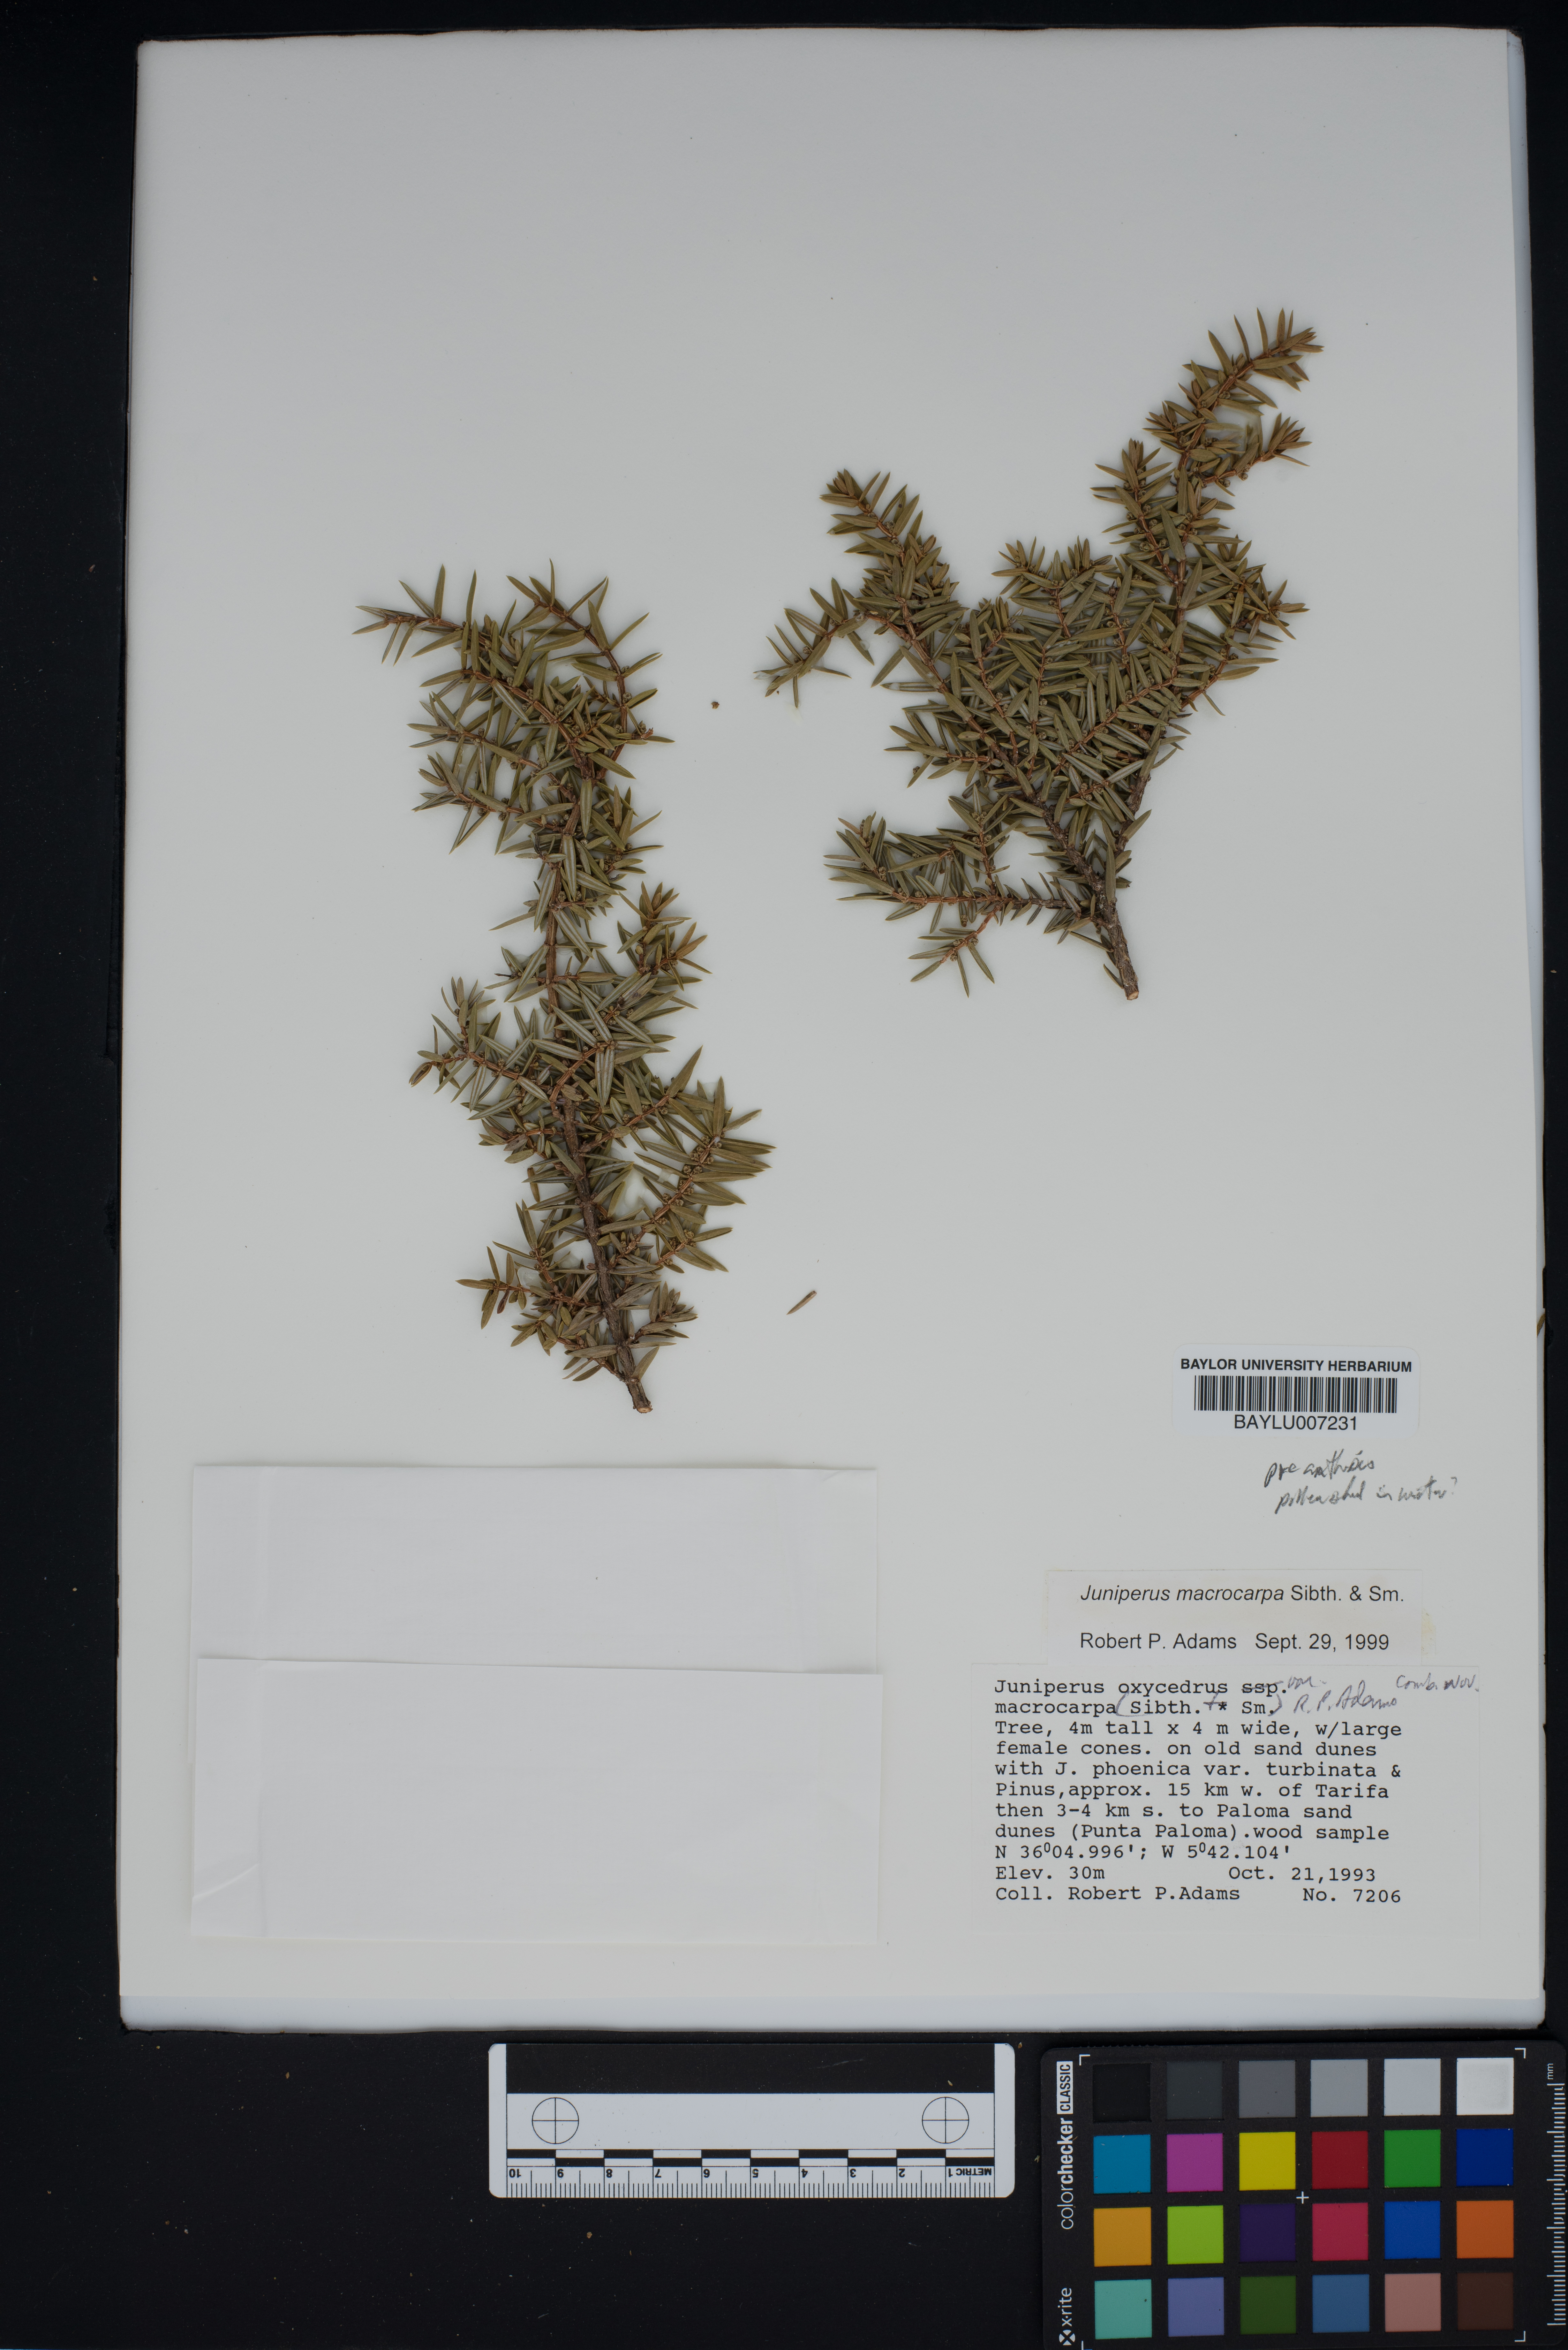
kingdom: Plantae
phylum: Tracheophyta
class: Pinopsida
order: Pinales
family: Cupressaceae
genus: Juniperus
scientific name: Juniperus oxycedrus
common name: Prickly juniper
